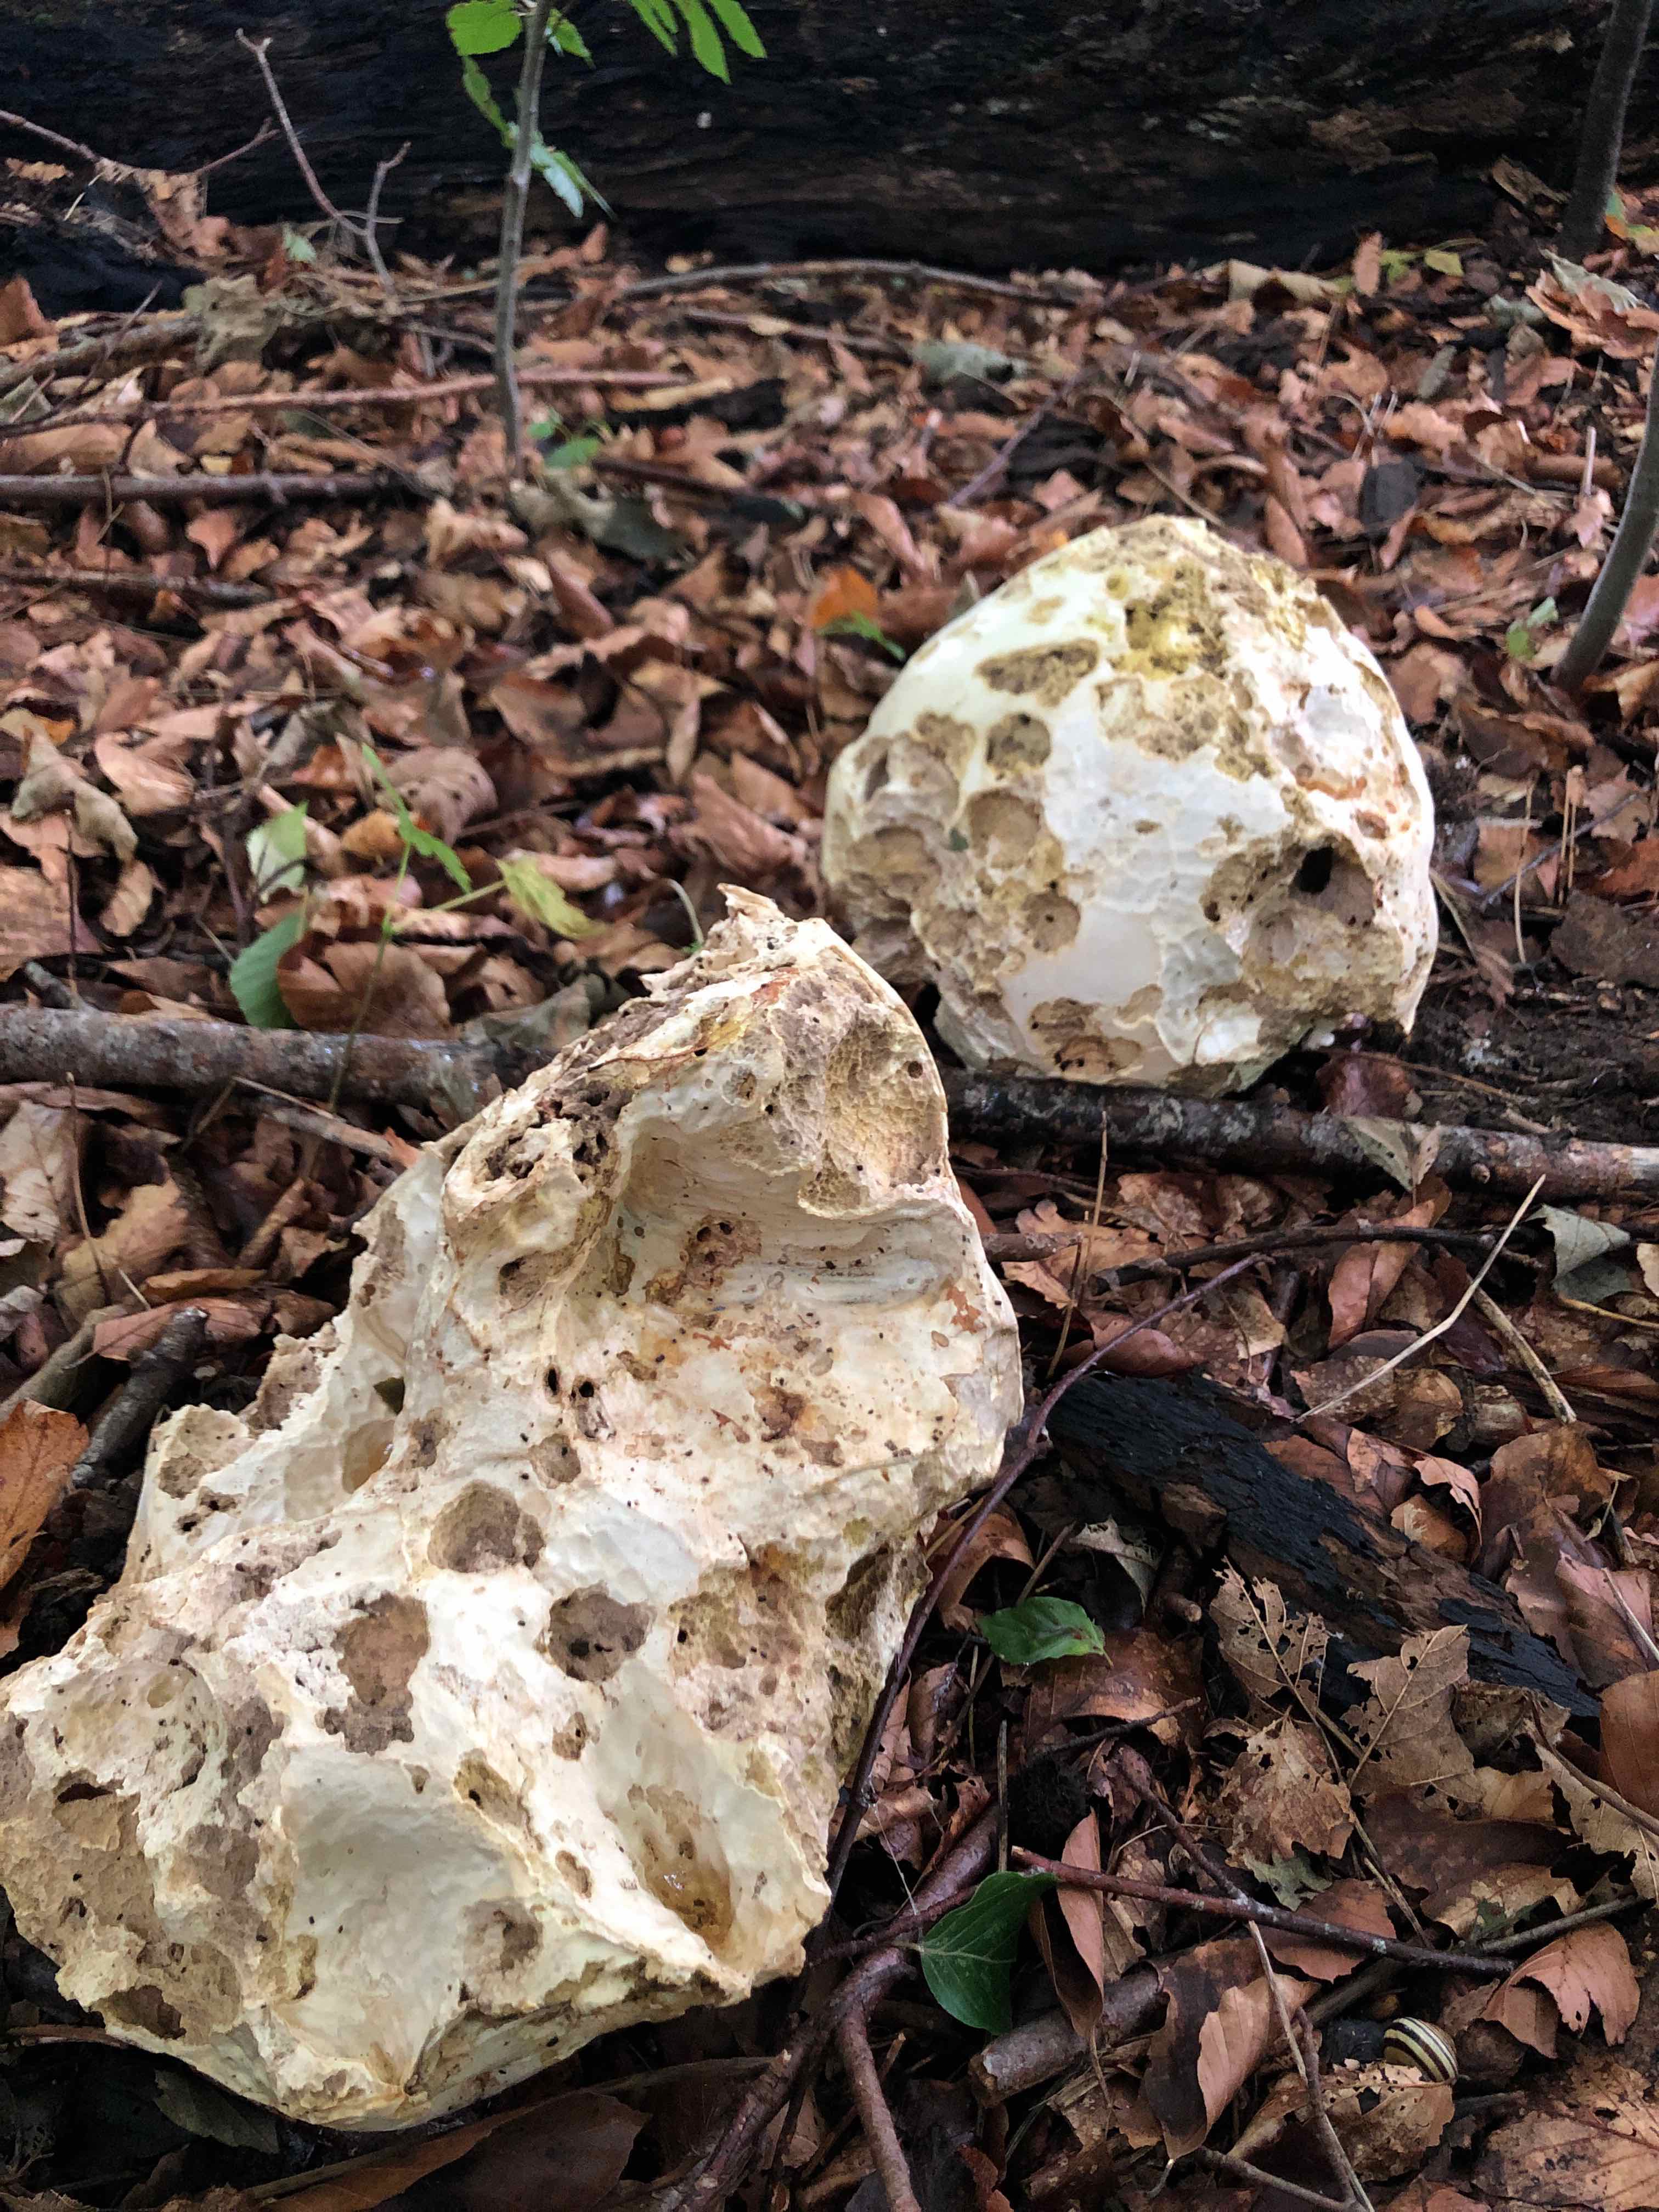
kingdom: Fungi
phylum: Basidiomycota
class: Agaricomycetes
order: Agaricales
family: Lycoperdaceae
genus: Calvatia
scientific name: Calvatia gigantea
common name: kæmpestøvbold
